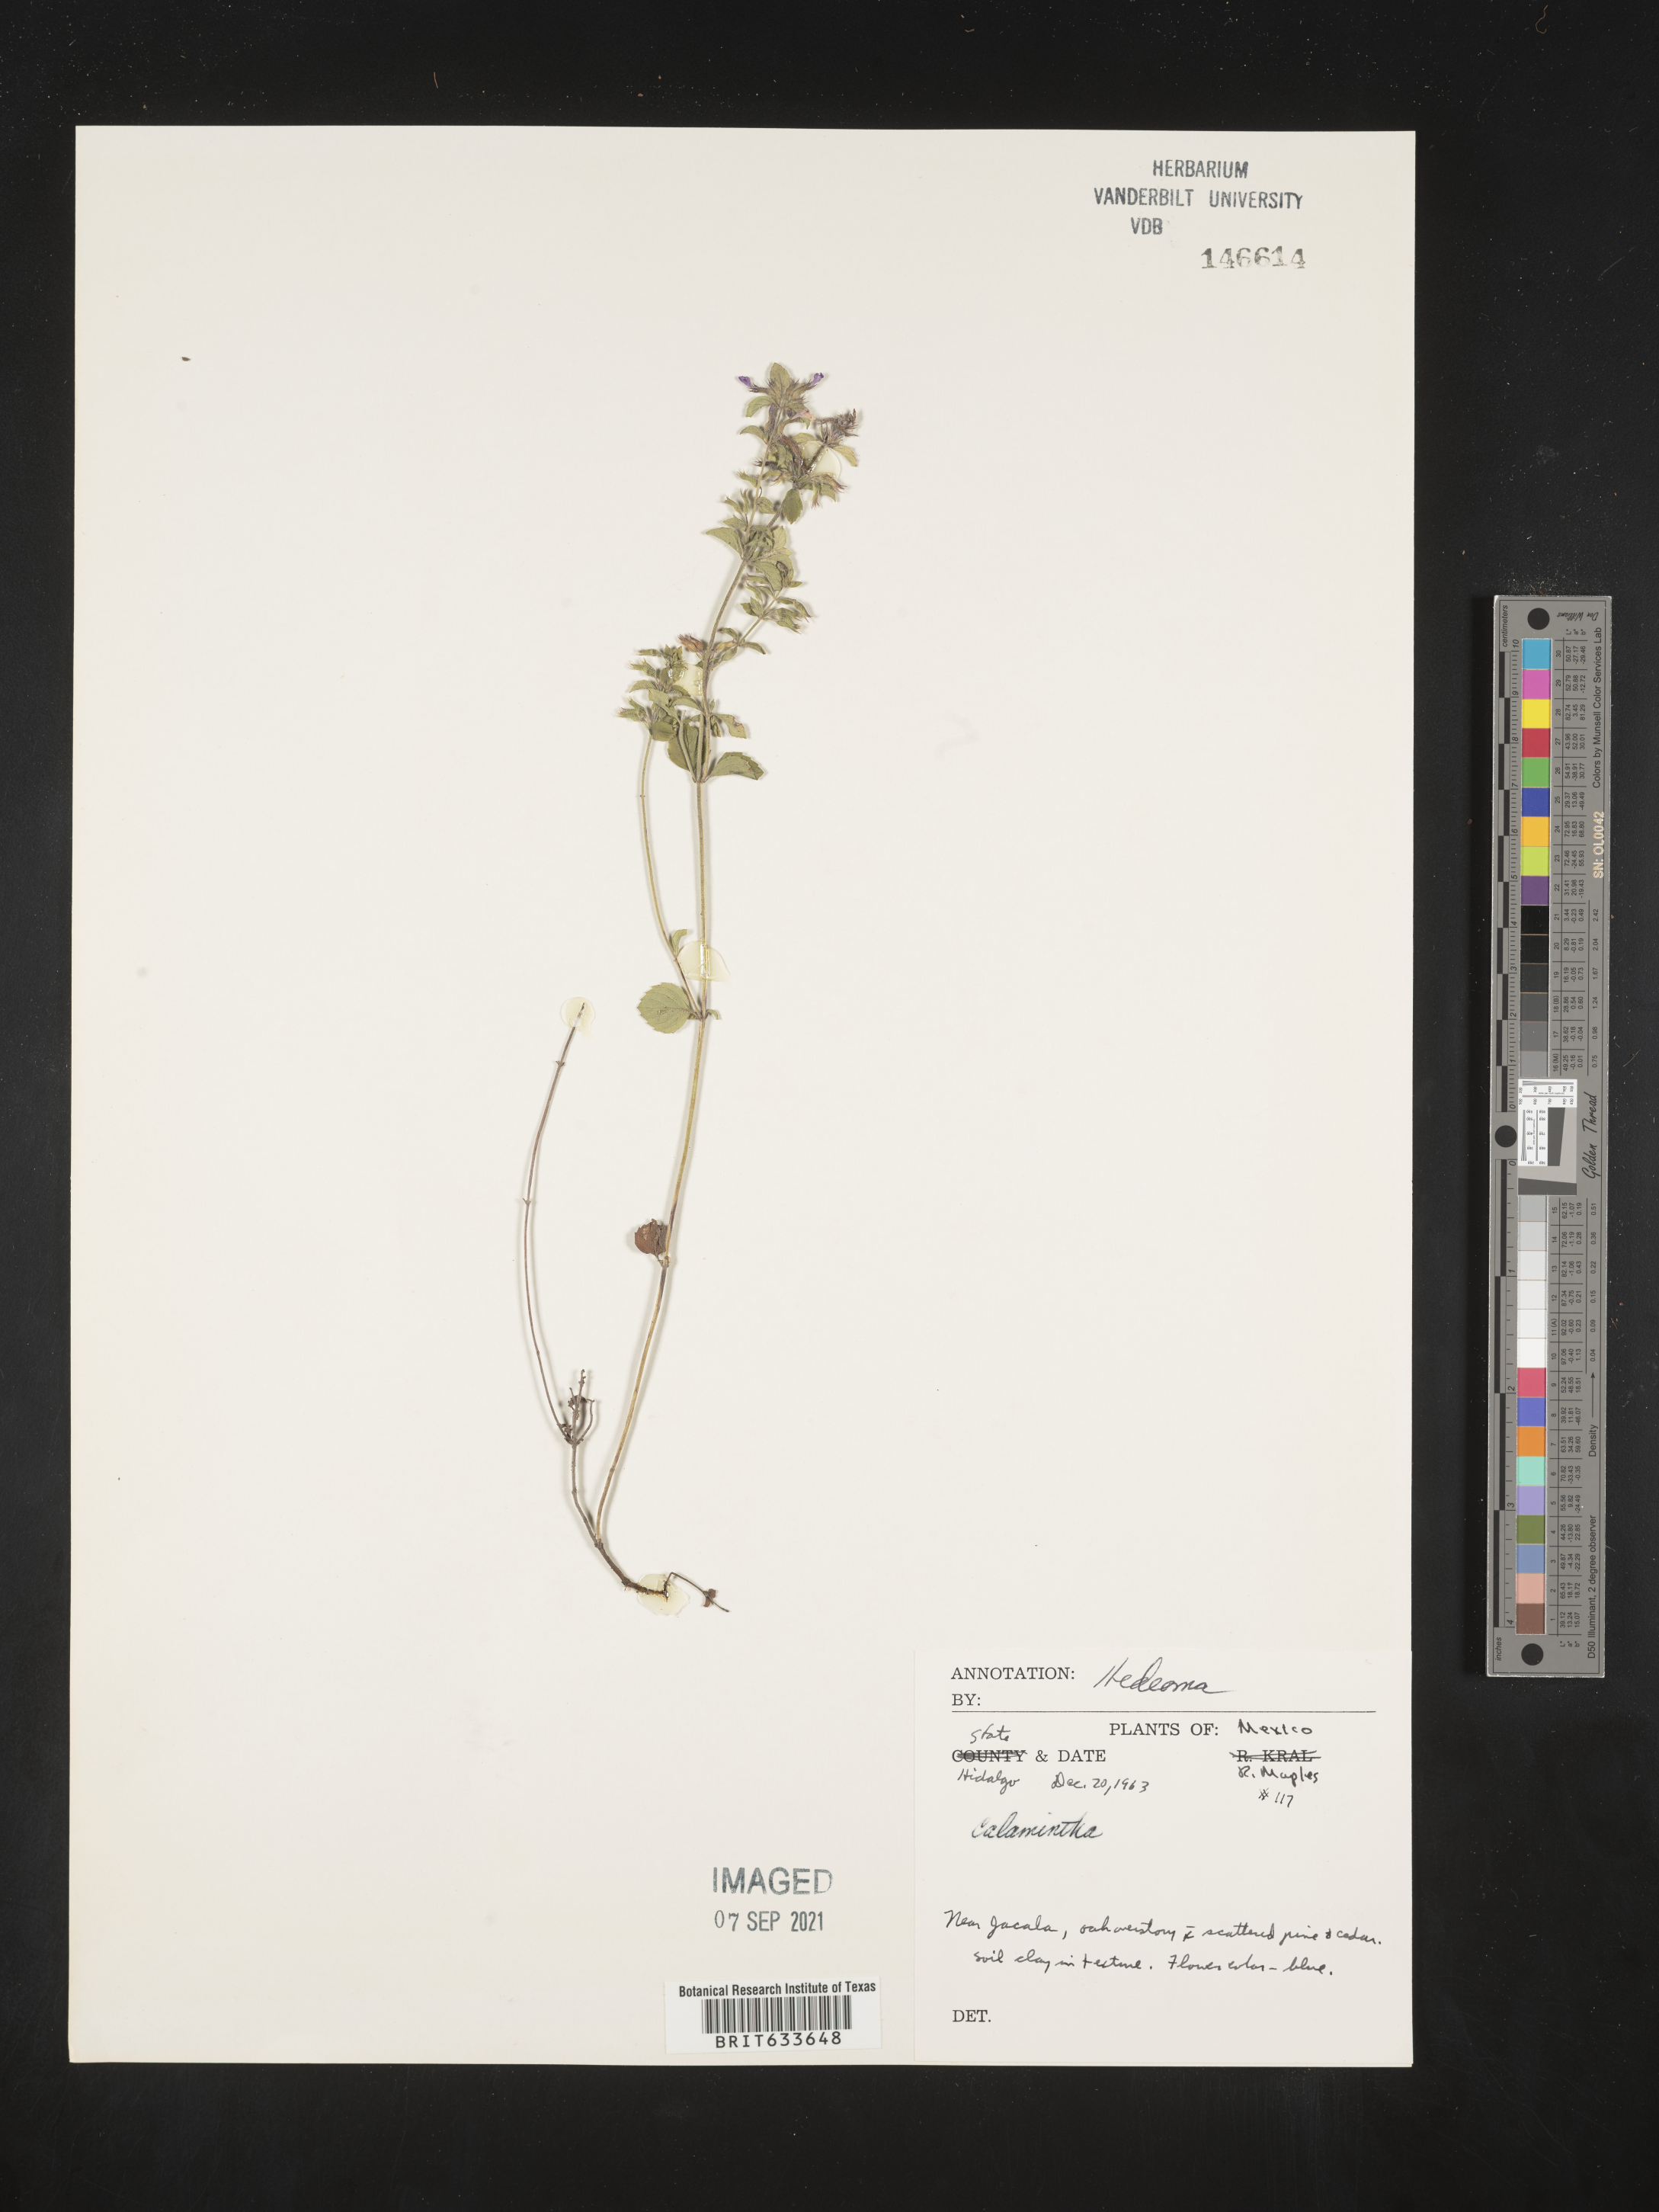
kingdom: Plantae
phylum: Tracheophyta
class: Magnoliopsida
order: Lamiales
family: Lamiaceae
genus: Hedeoma
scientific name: Hedeoma
